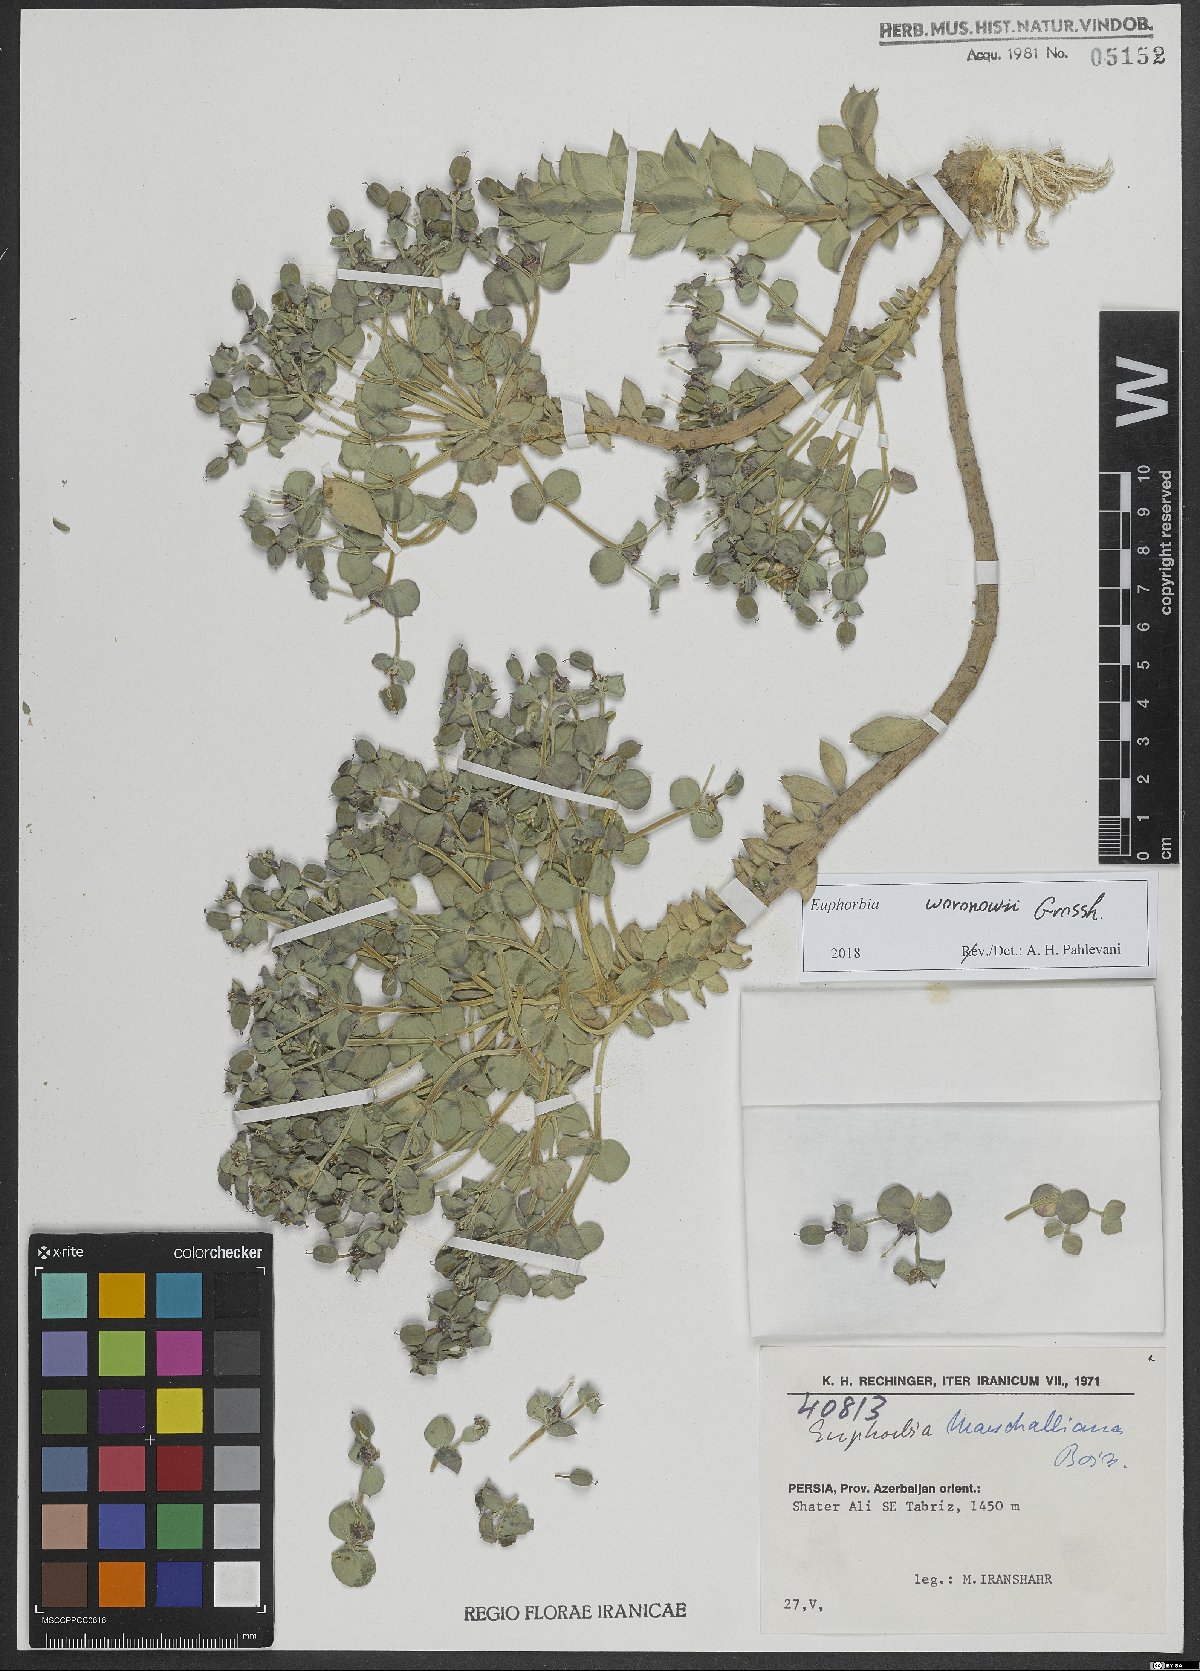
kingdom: Plantae
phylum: Tracheophyta
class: Magnoliopsida
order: Malpighiales
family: Euphorbiaceae
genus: Euphorbia
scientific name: Euphorbia marschalliana
